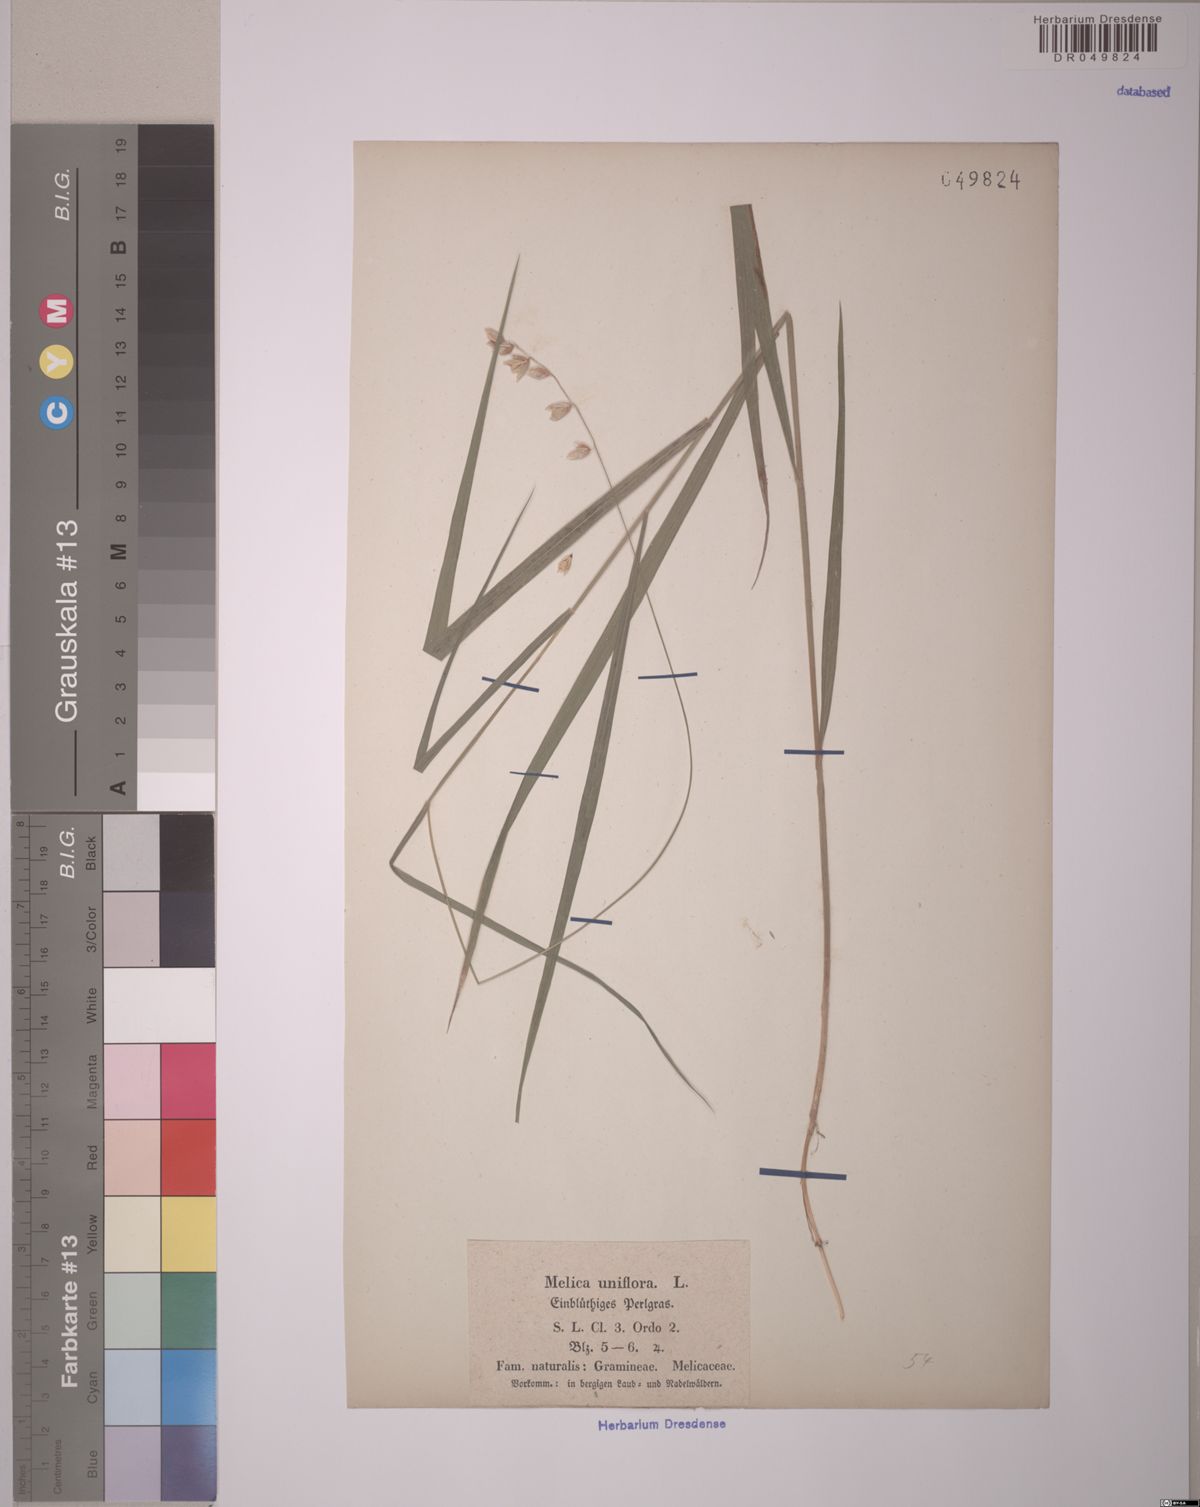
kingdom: Plantae
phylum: Tracheophyta
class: Liliopsida
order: Poales
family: Poaceae
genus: Melica
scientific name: Melica uniflora
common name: Wood melick
